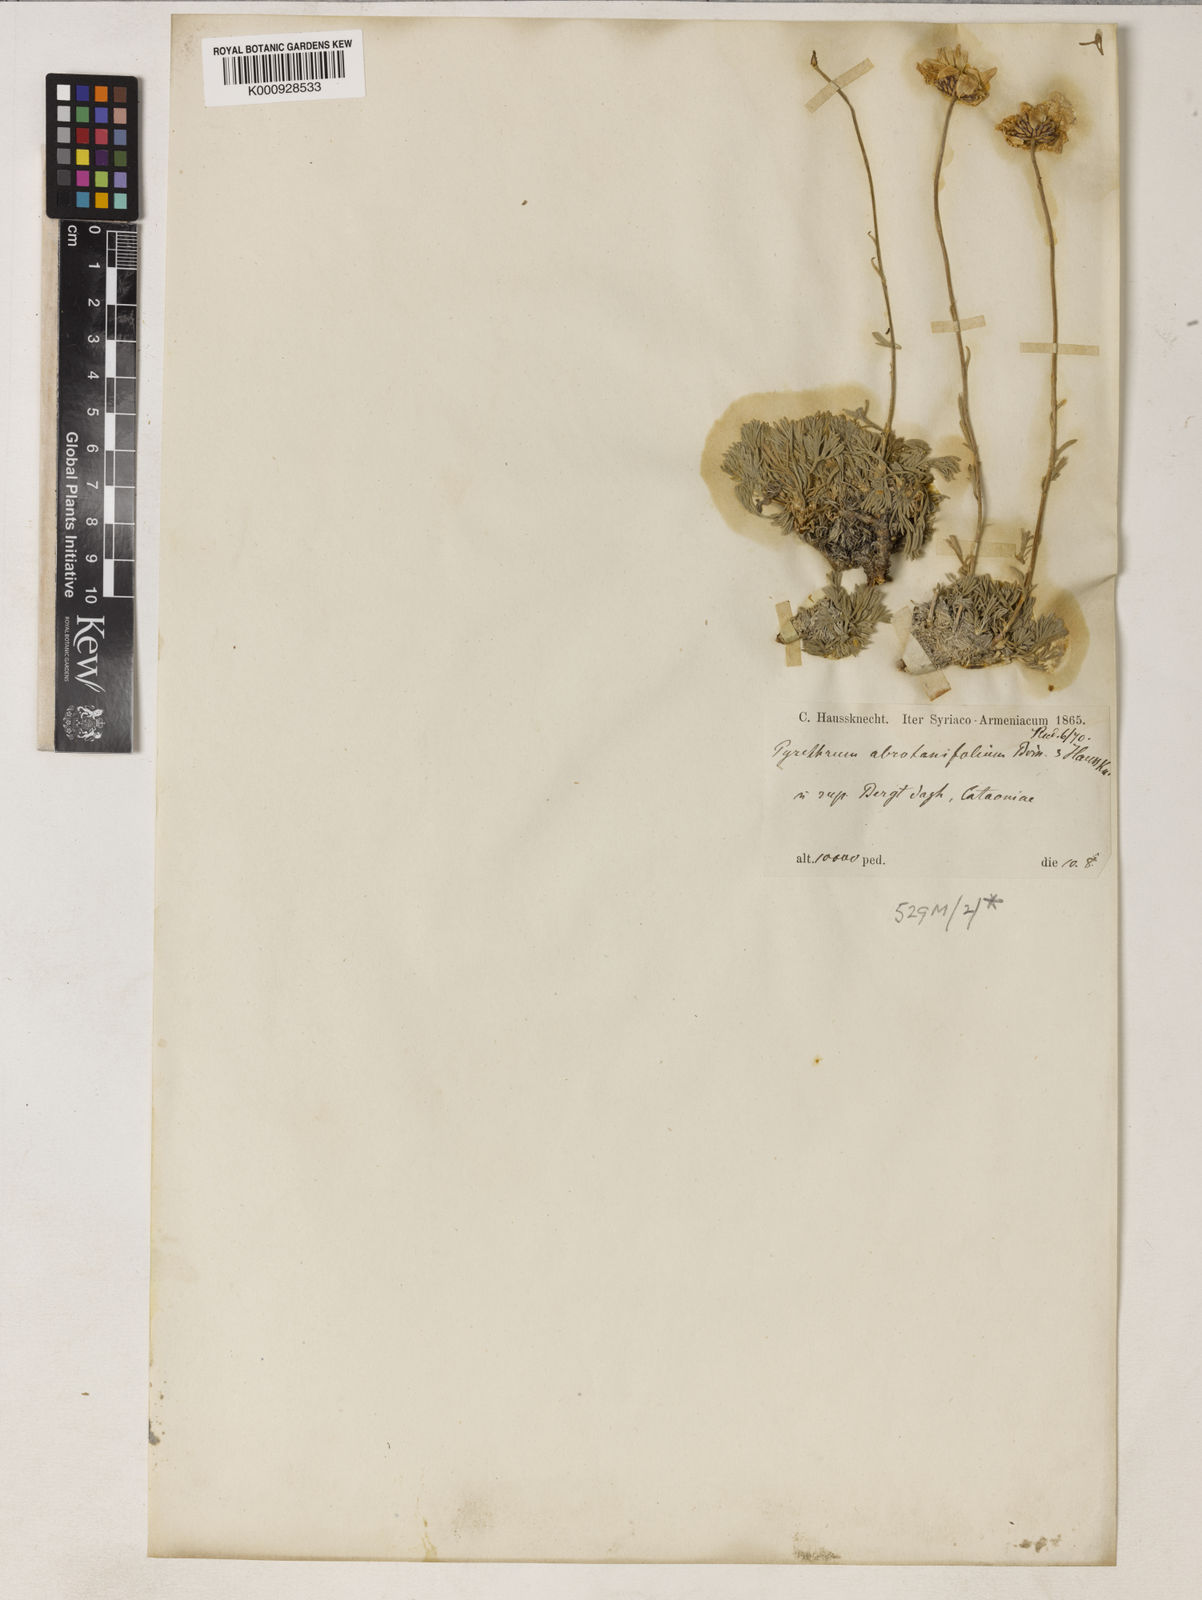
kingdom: Plantae
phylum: Tracheophyta
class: Magnoliopsida
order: Asterales
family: Asteraceae
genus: Tanacetum
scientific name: Tanacetum kotschyi
